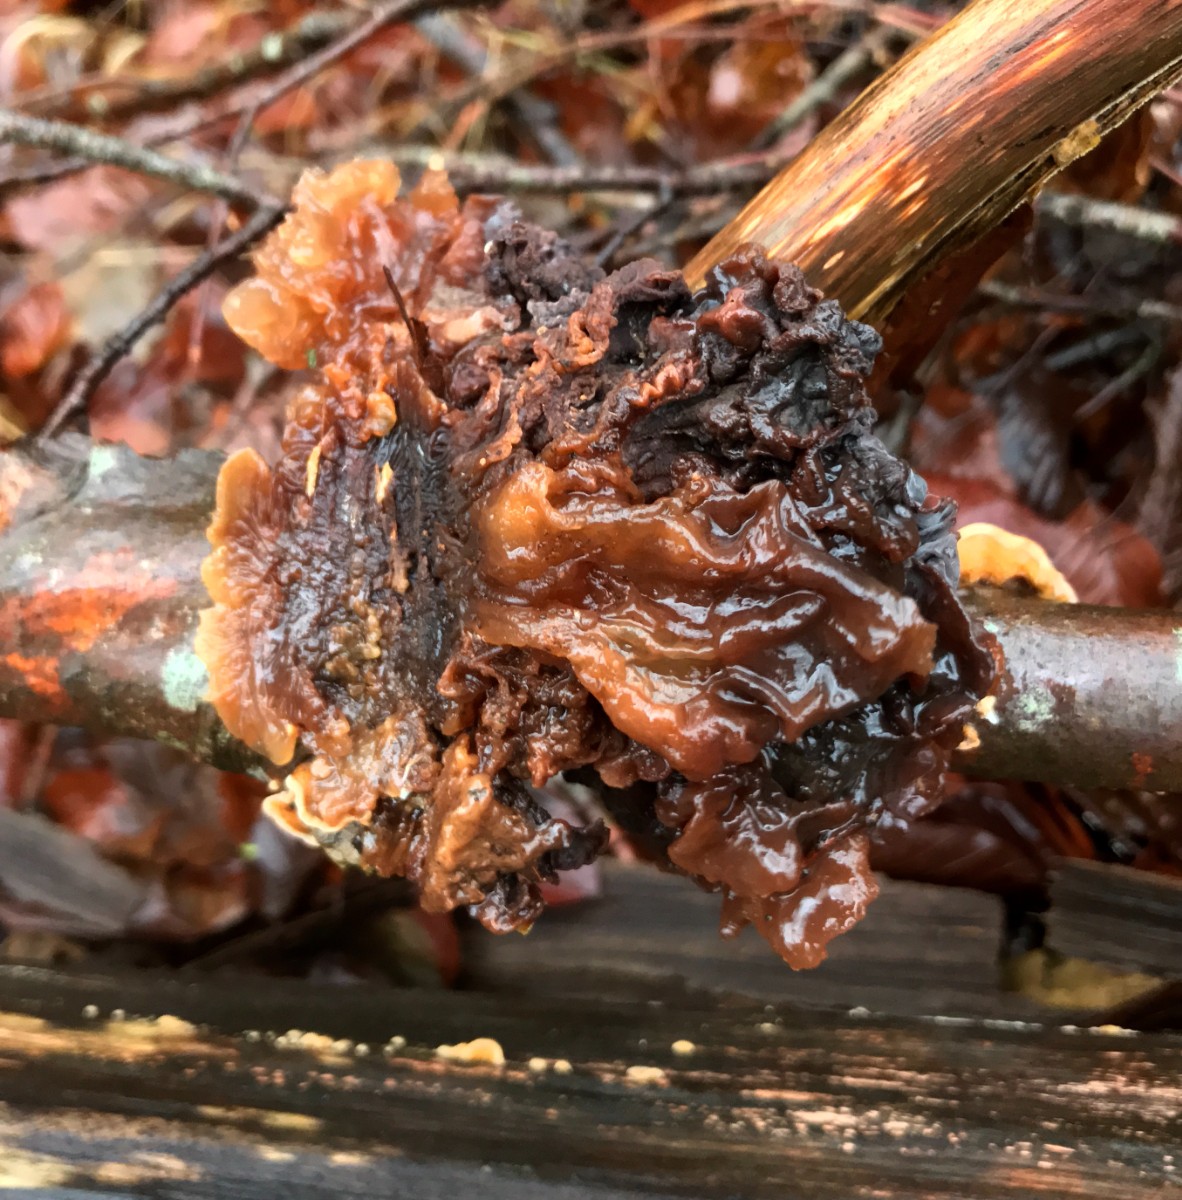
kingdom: Fungi
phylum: Basidiomycota
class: Tremellomycetes
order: Tremellales
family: Tremellaceae
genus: Phaeotremella
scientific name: Phaeotremella frondosa
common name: kæmpe-bævresvamp
